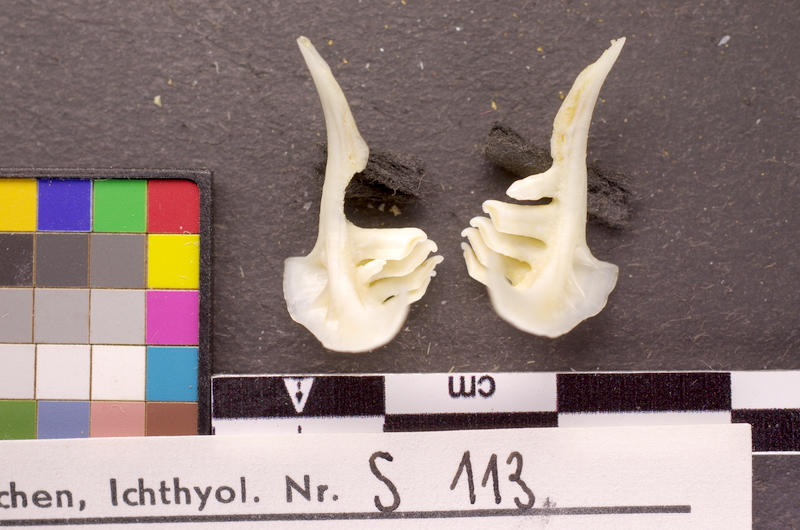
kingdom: Animalia
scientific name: Animalia
